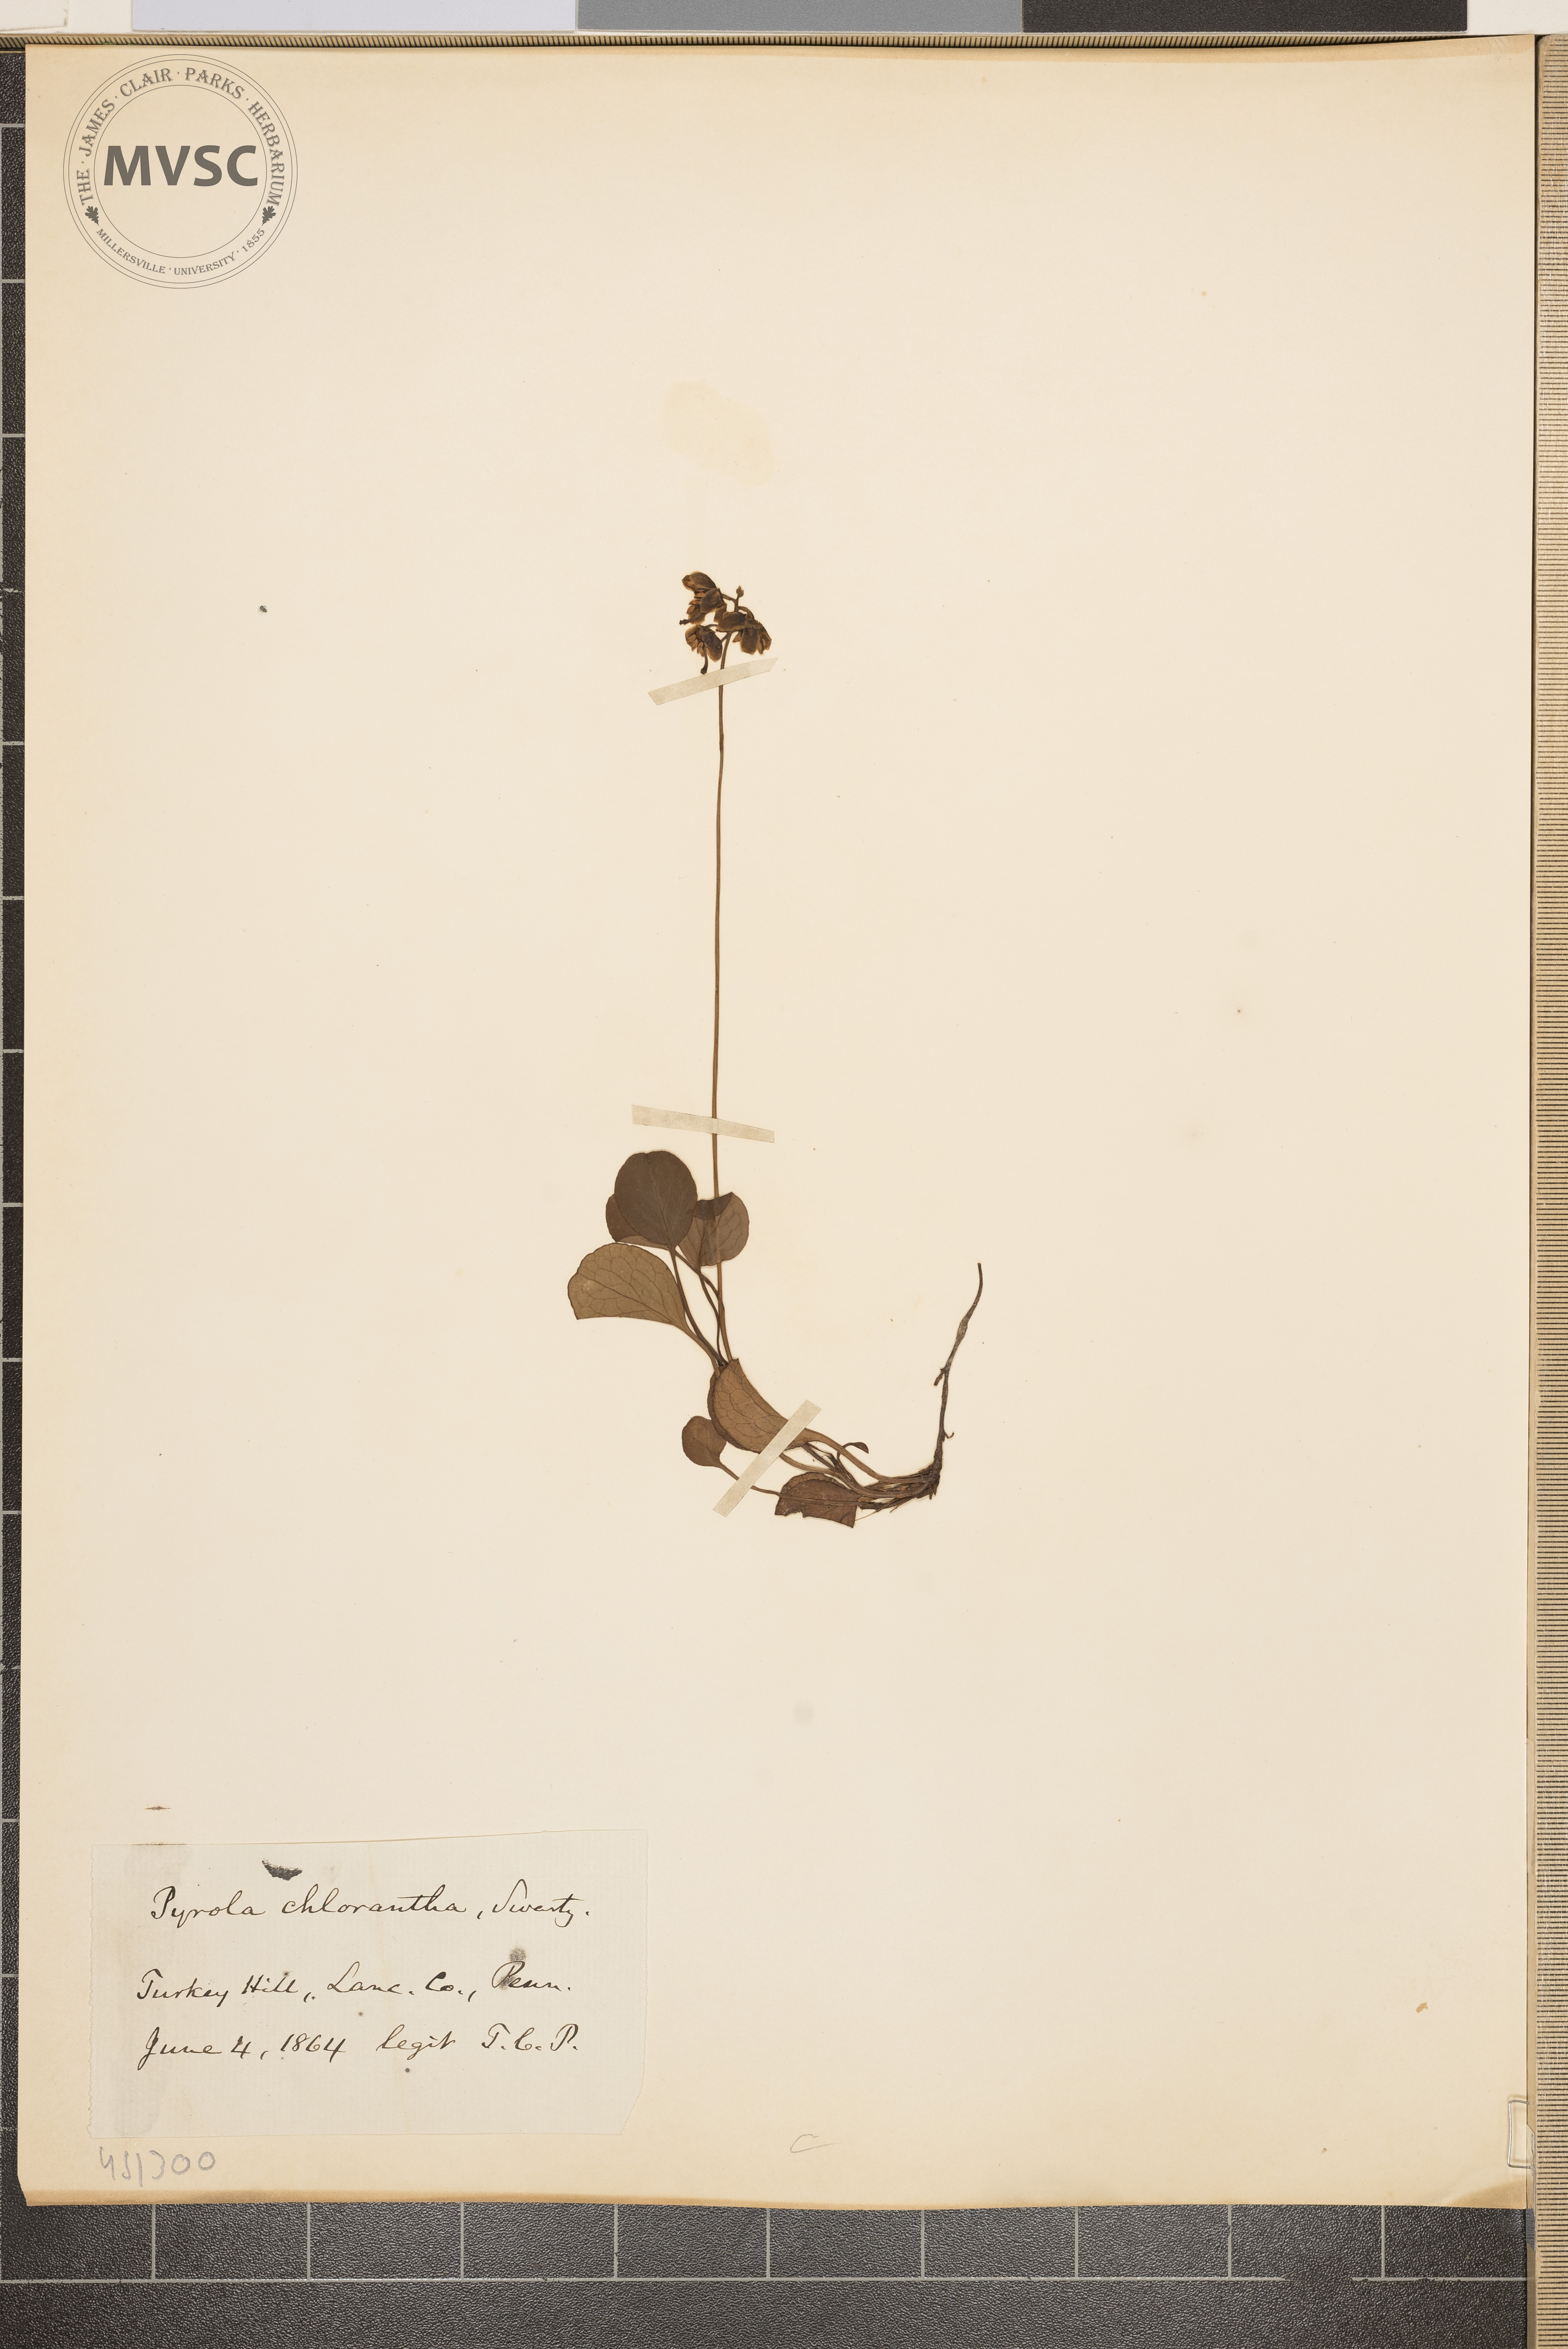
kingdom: Plantae
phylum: Tracheophyta
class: Magnoliopsida
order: Ericales
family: Ericaceae
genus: Pyrola
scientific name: Pyrola chlorantha
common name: Green wintergreen
